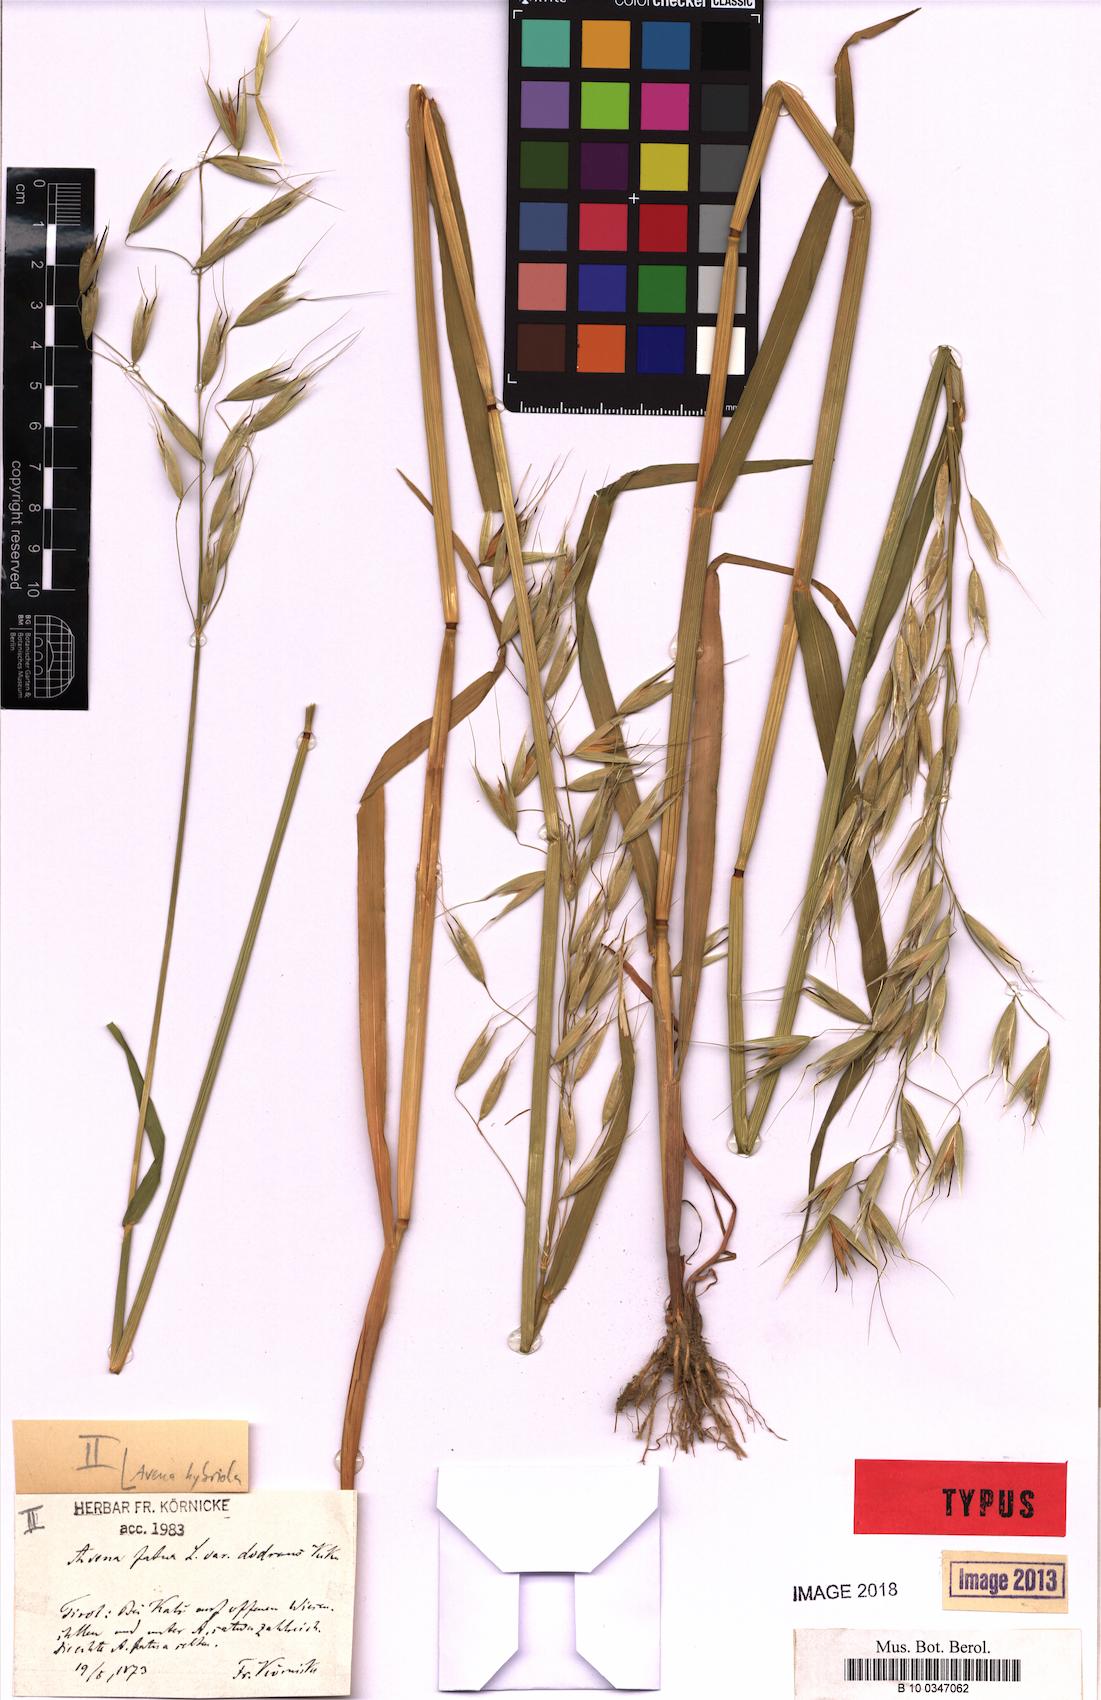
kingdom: Plantae
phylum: Tracheophyta
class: Liliopsida
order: Poales
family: Poaceae
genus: Avena
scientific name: Avena hybrida
